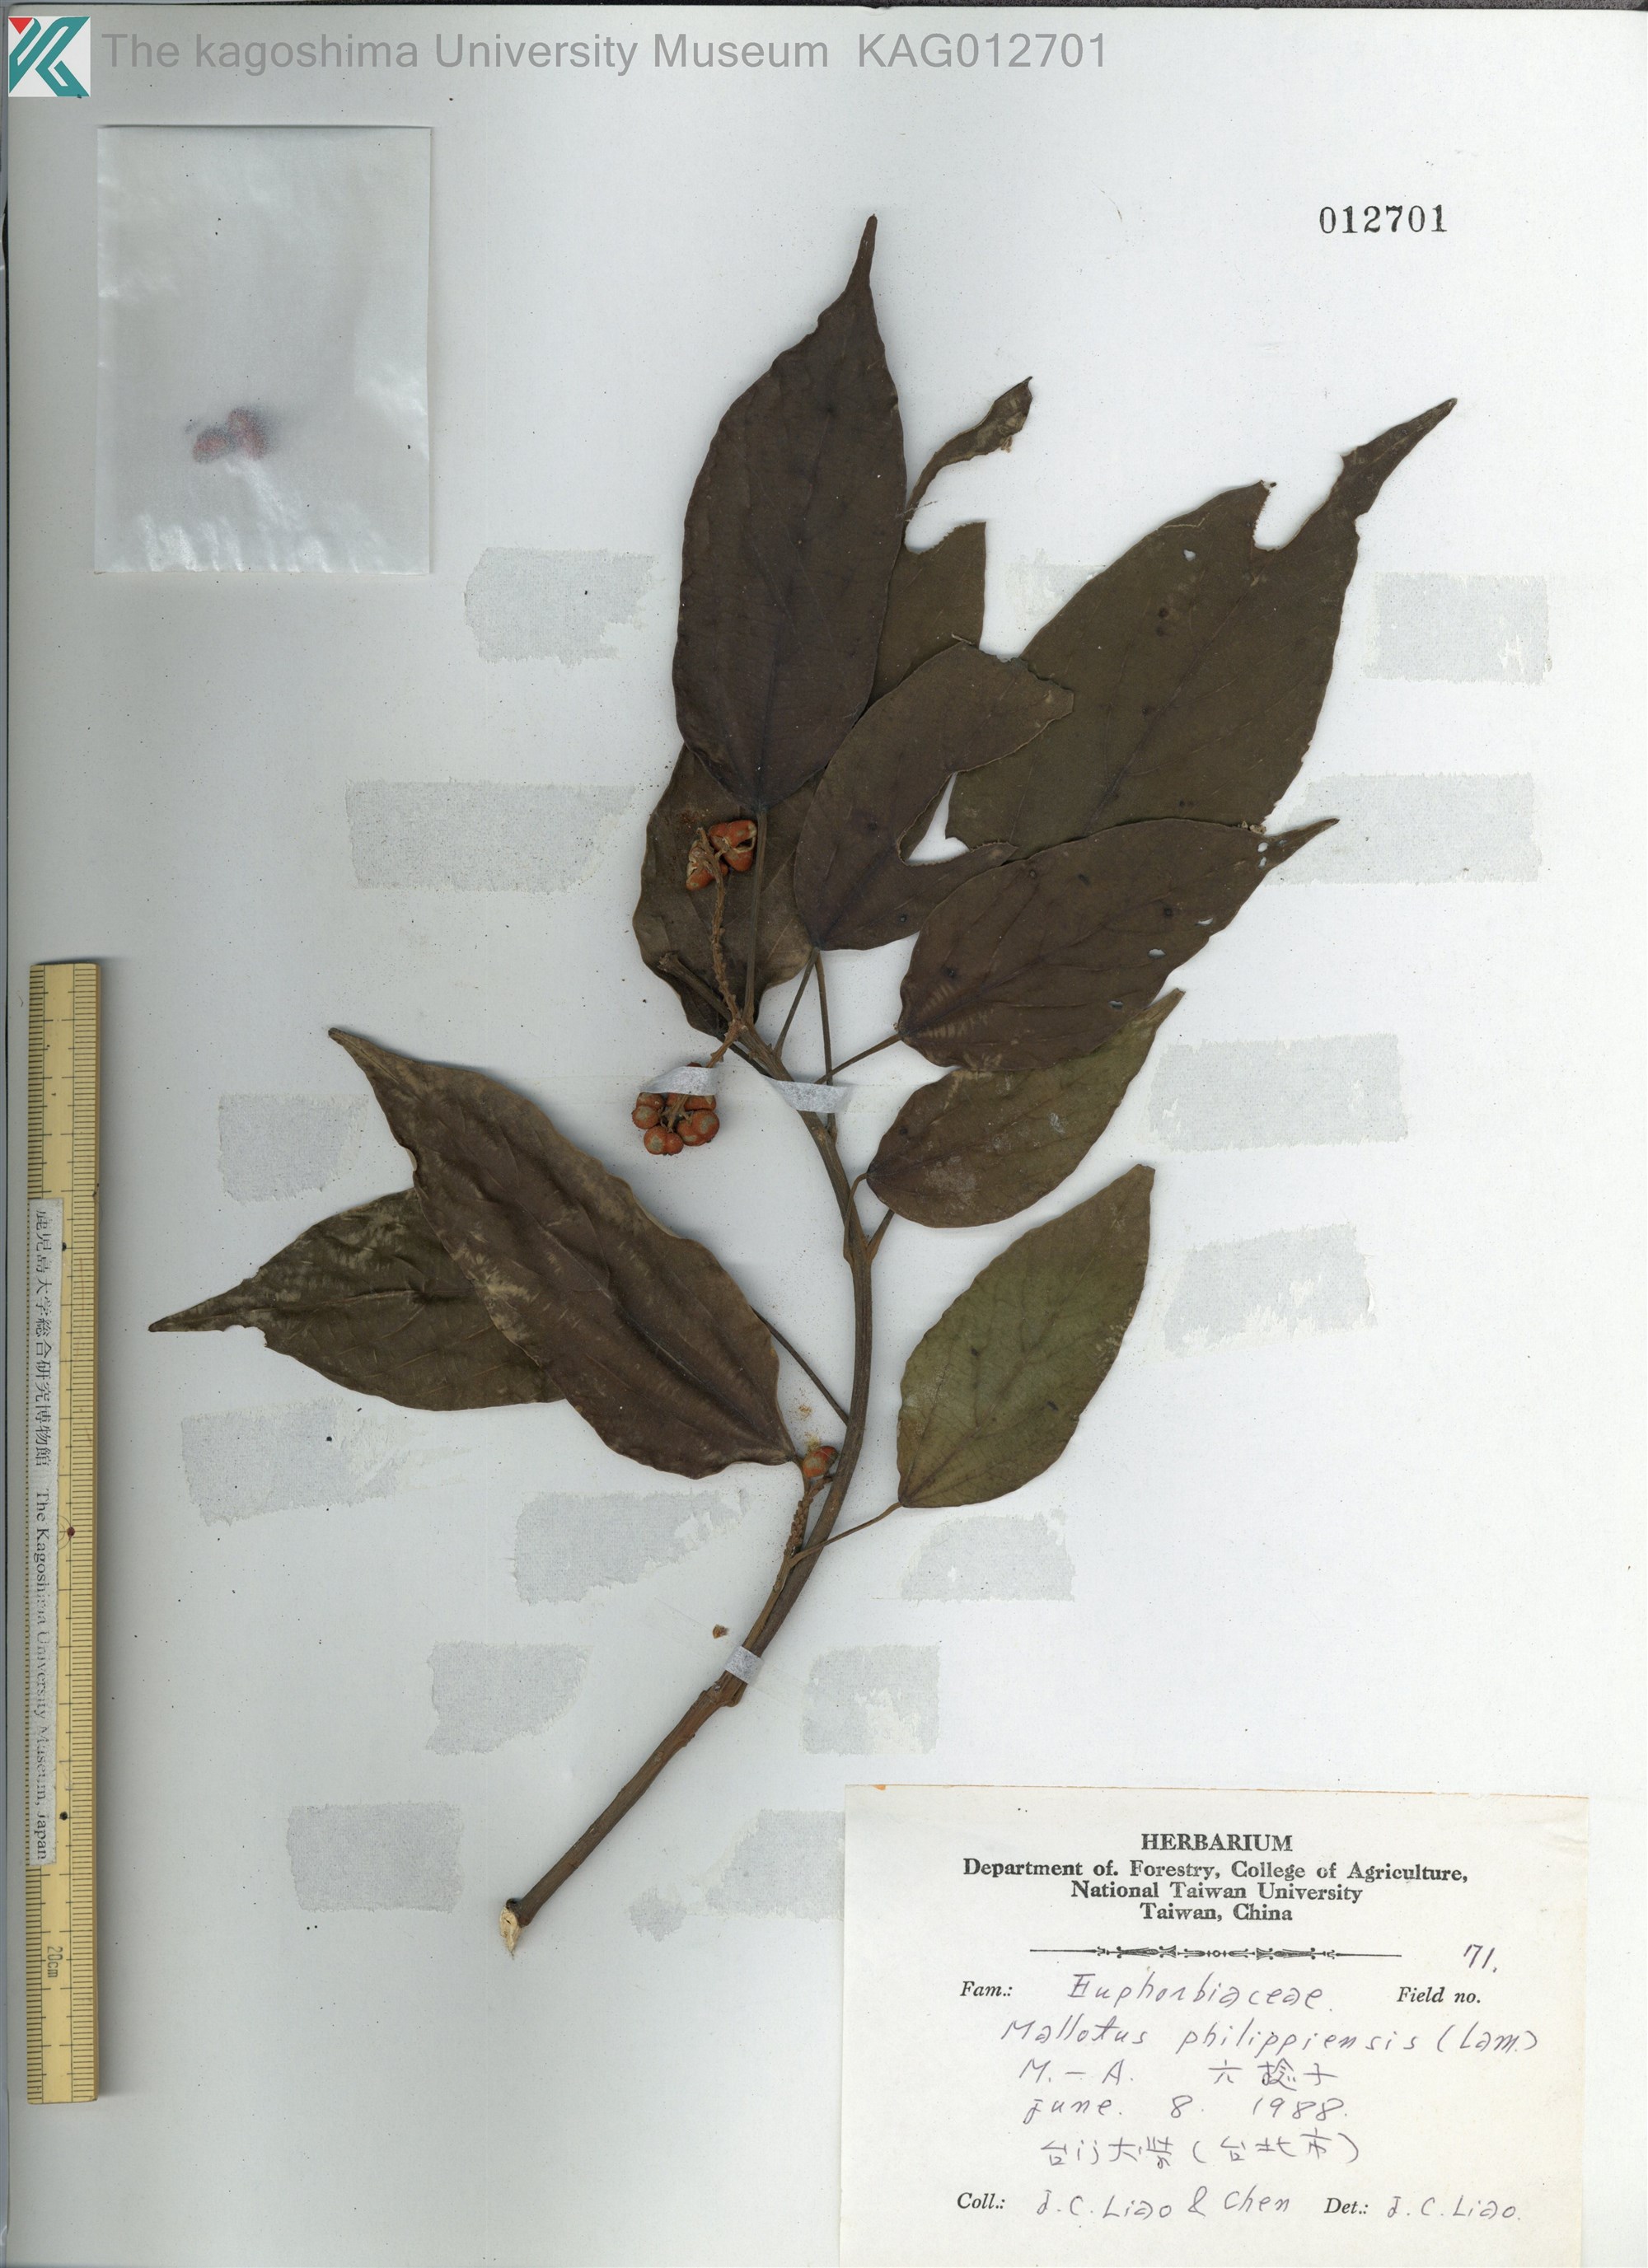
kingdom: Plantae
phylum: Tracheophyta
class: Magnoliopsida
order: Malpighiales
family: Euphorbiaceae
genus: Mallotus
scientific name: Mallotus philippensis
